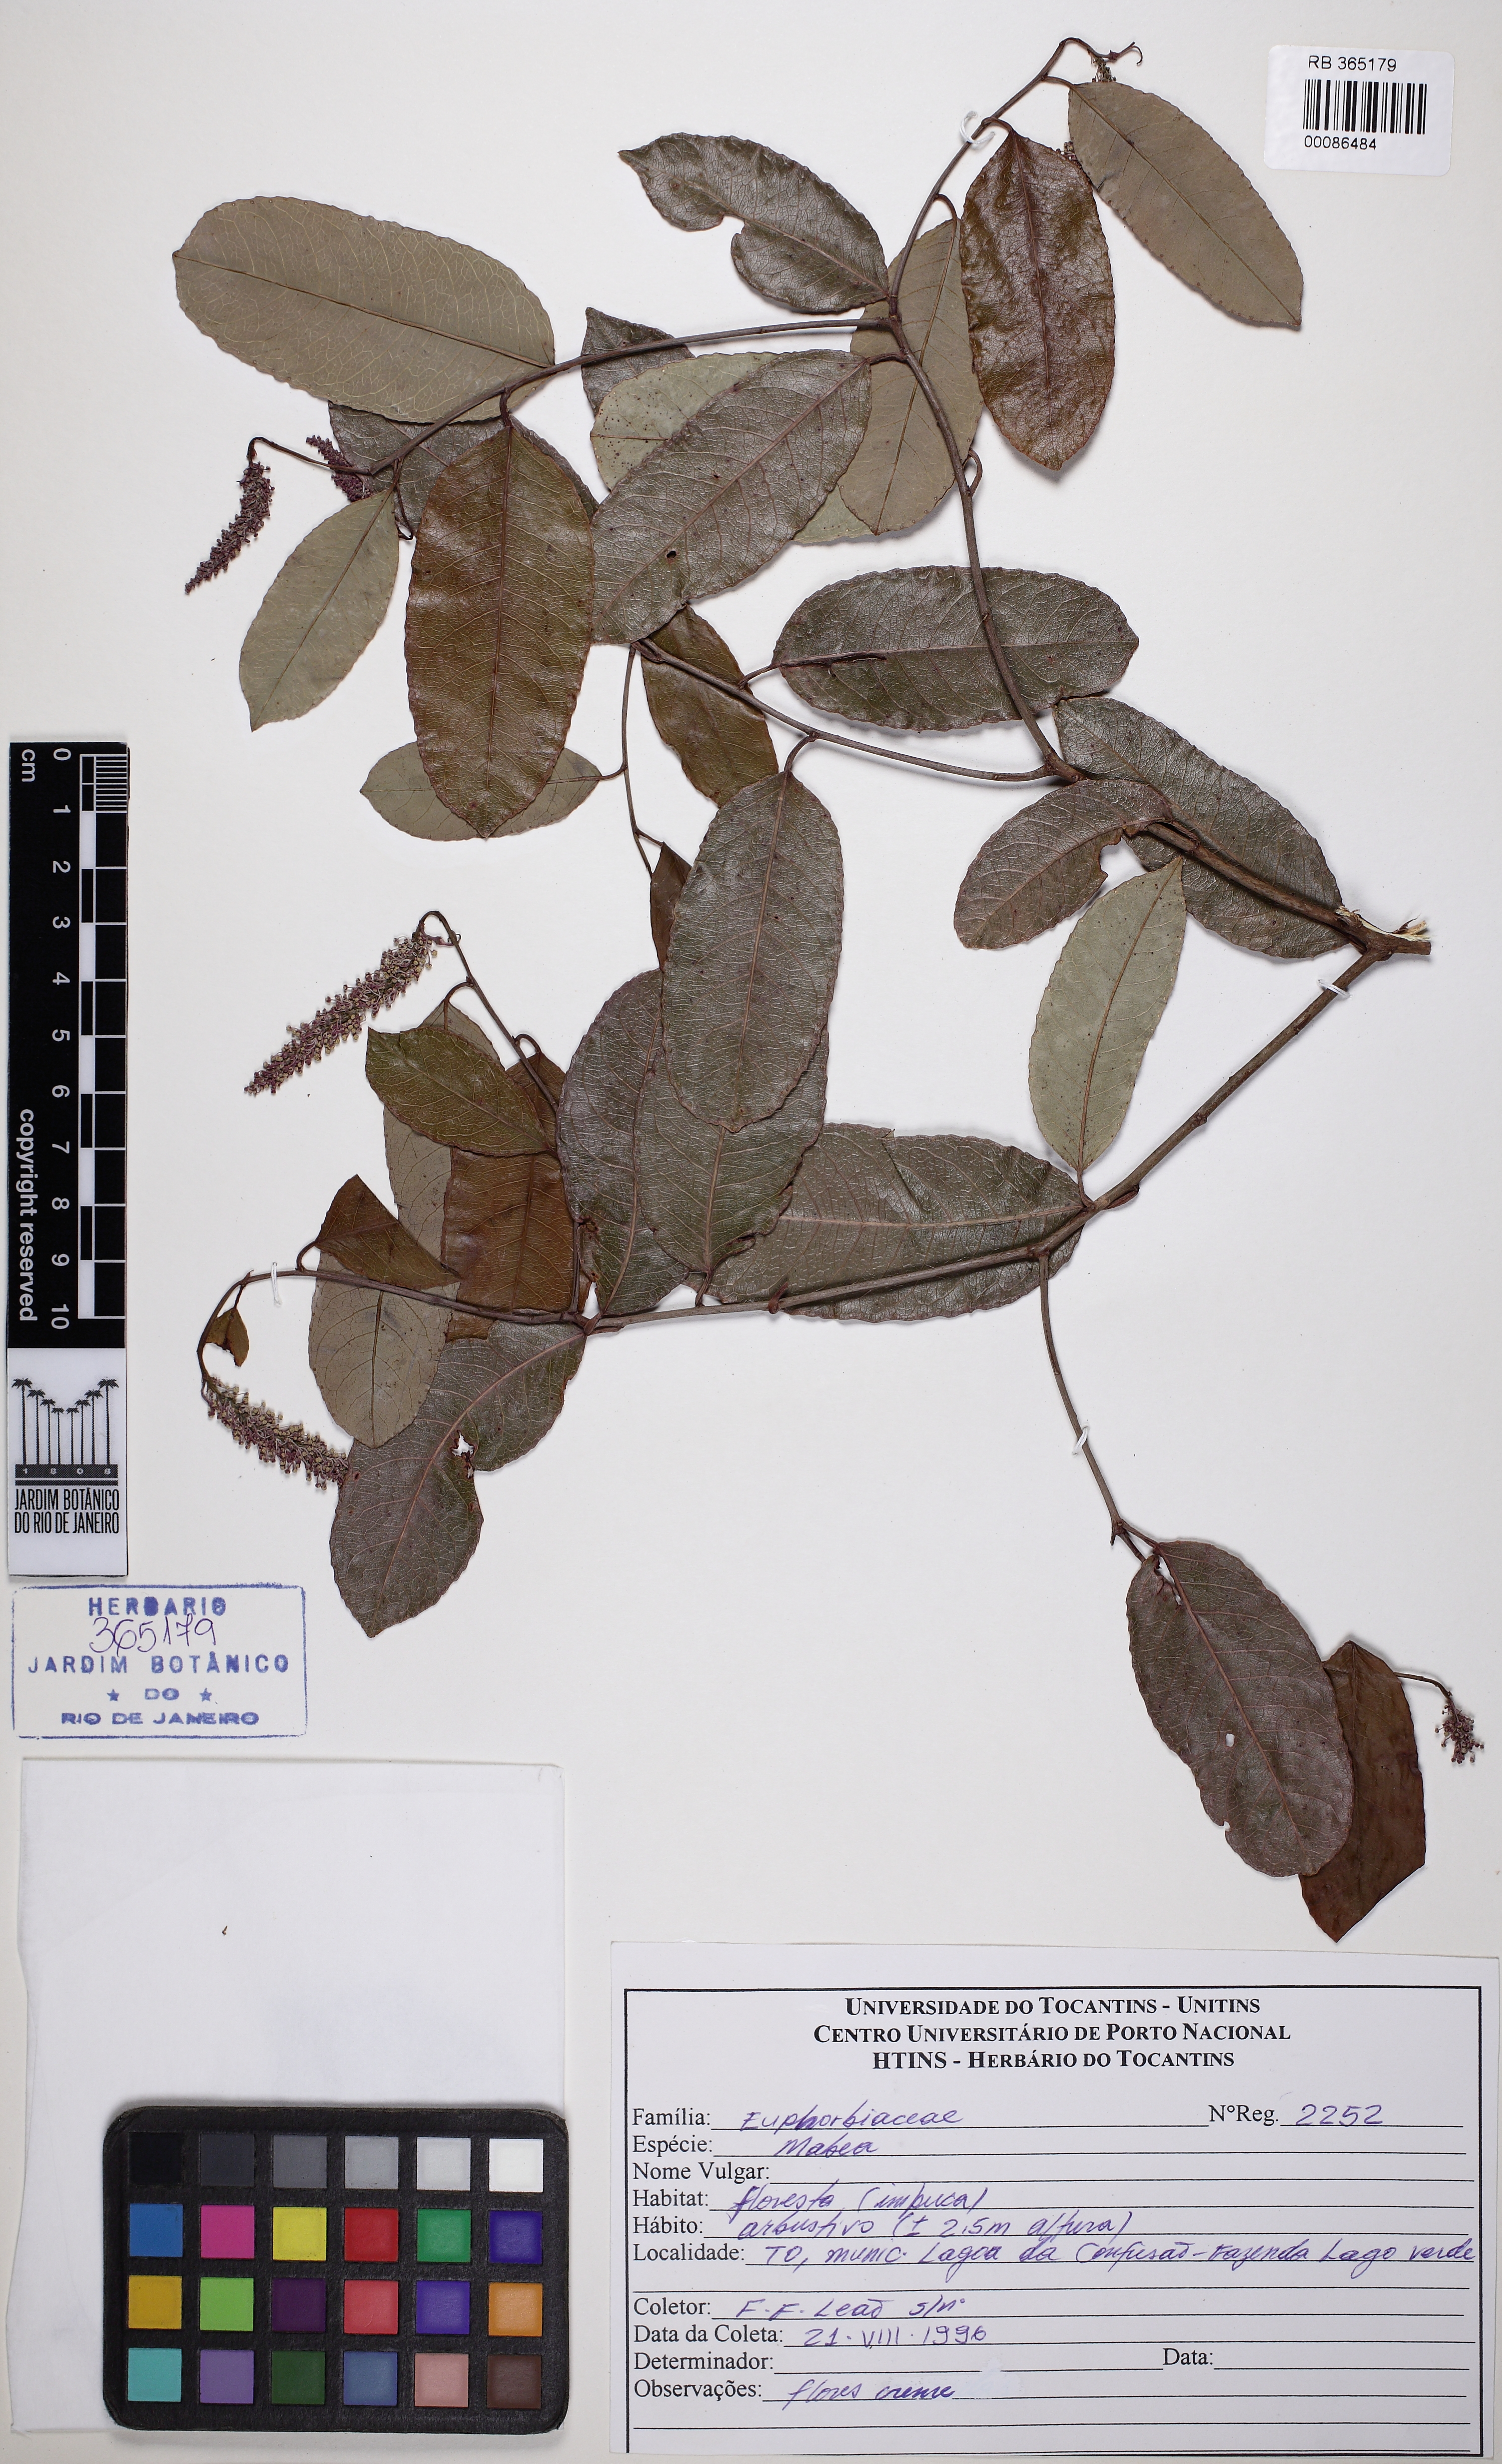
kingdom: Plantae
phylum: Tracheophyta
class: Magnoliopsida
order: Malpighiales
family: Euphorbiaceae
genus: Mabea
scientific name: Mabea
